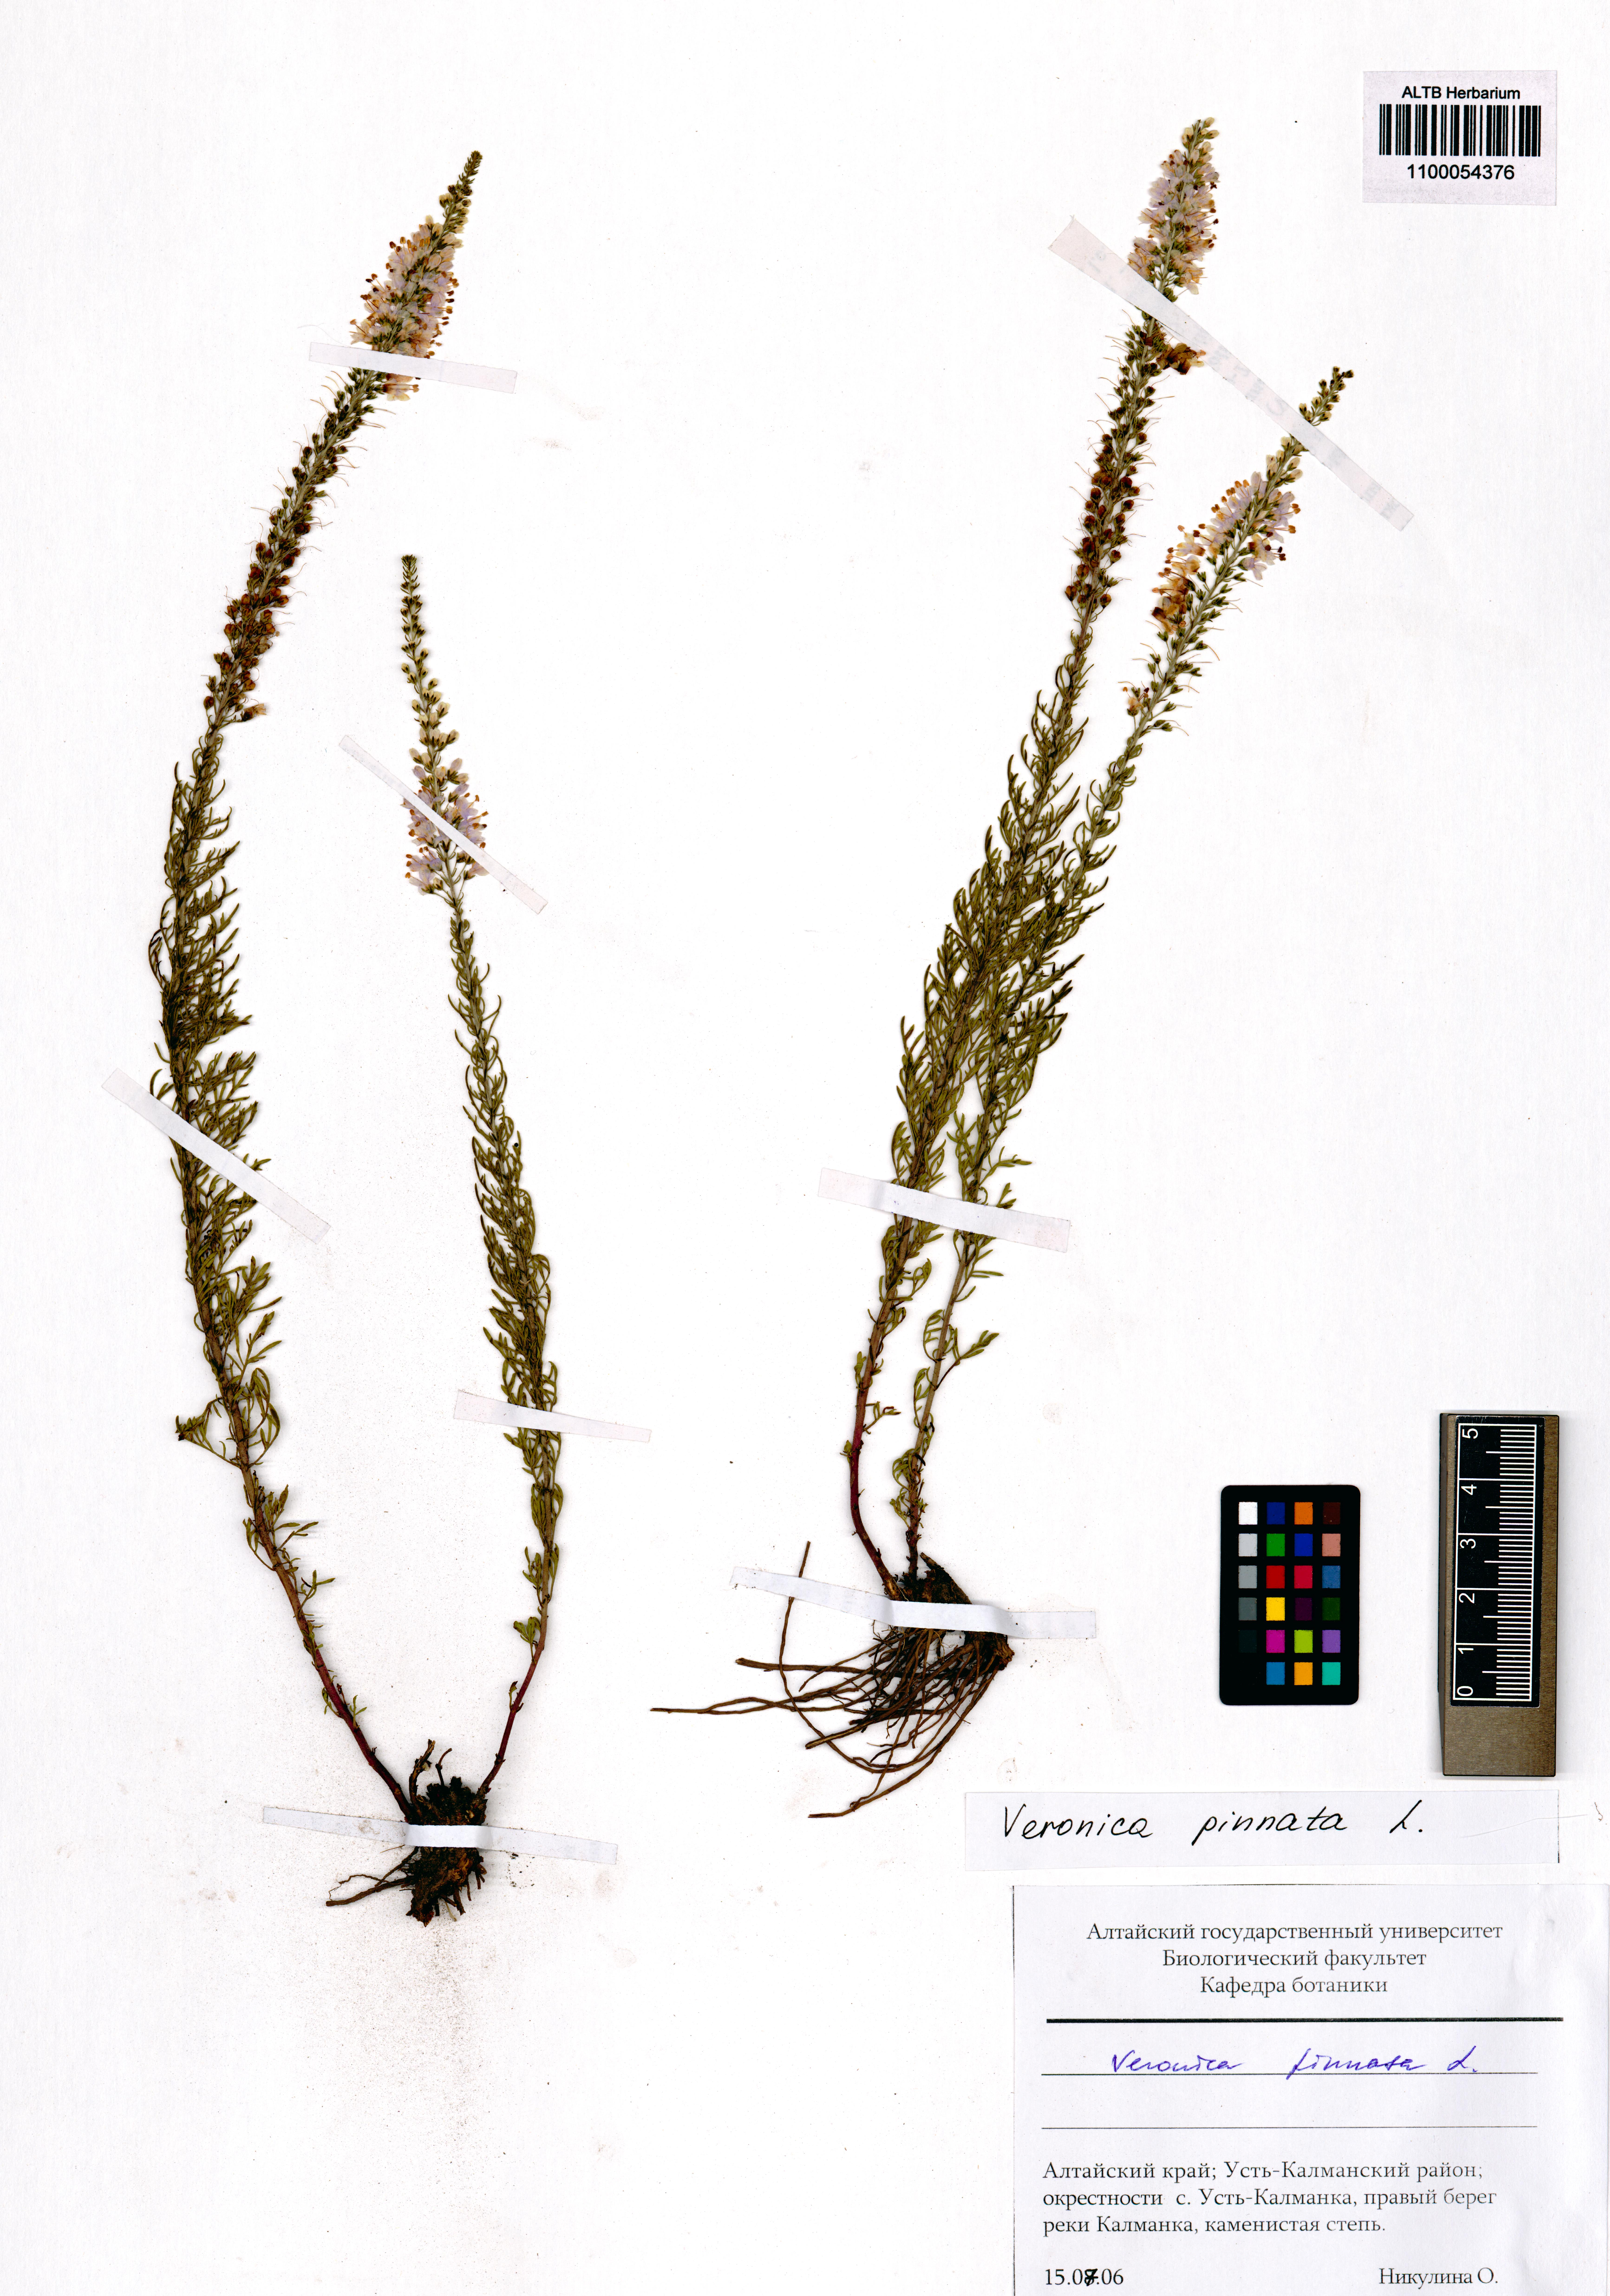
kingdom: Plantae
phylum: Tracheophyta
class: Magnoliopsida
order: Lamiales
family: Plantaginaceae
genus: Veronica
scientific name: Veronica pinnata
